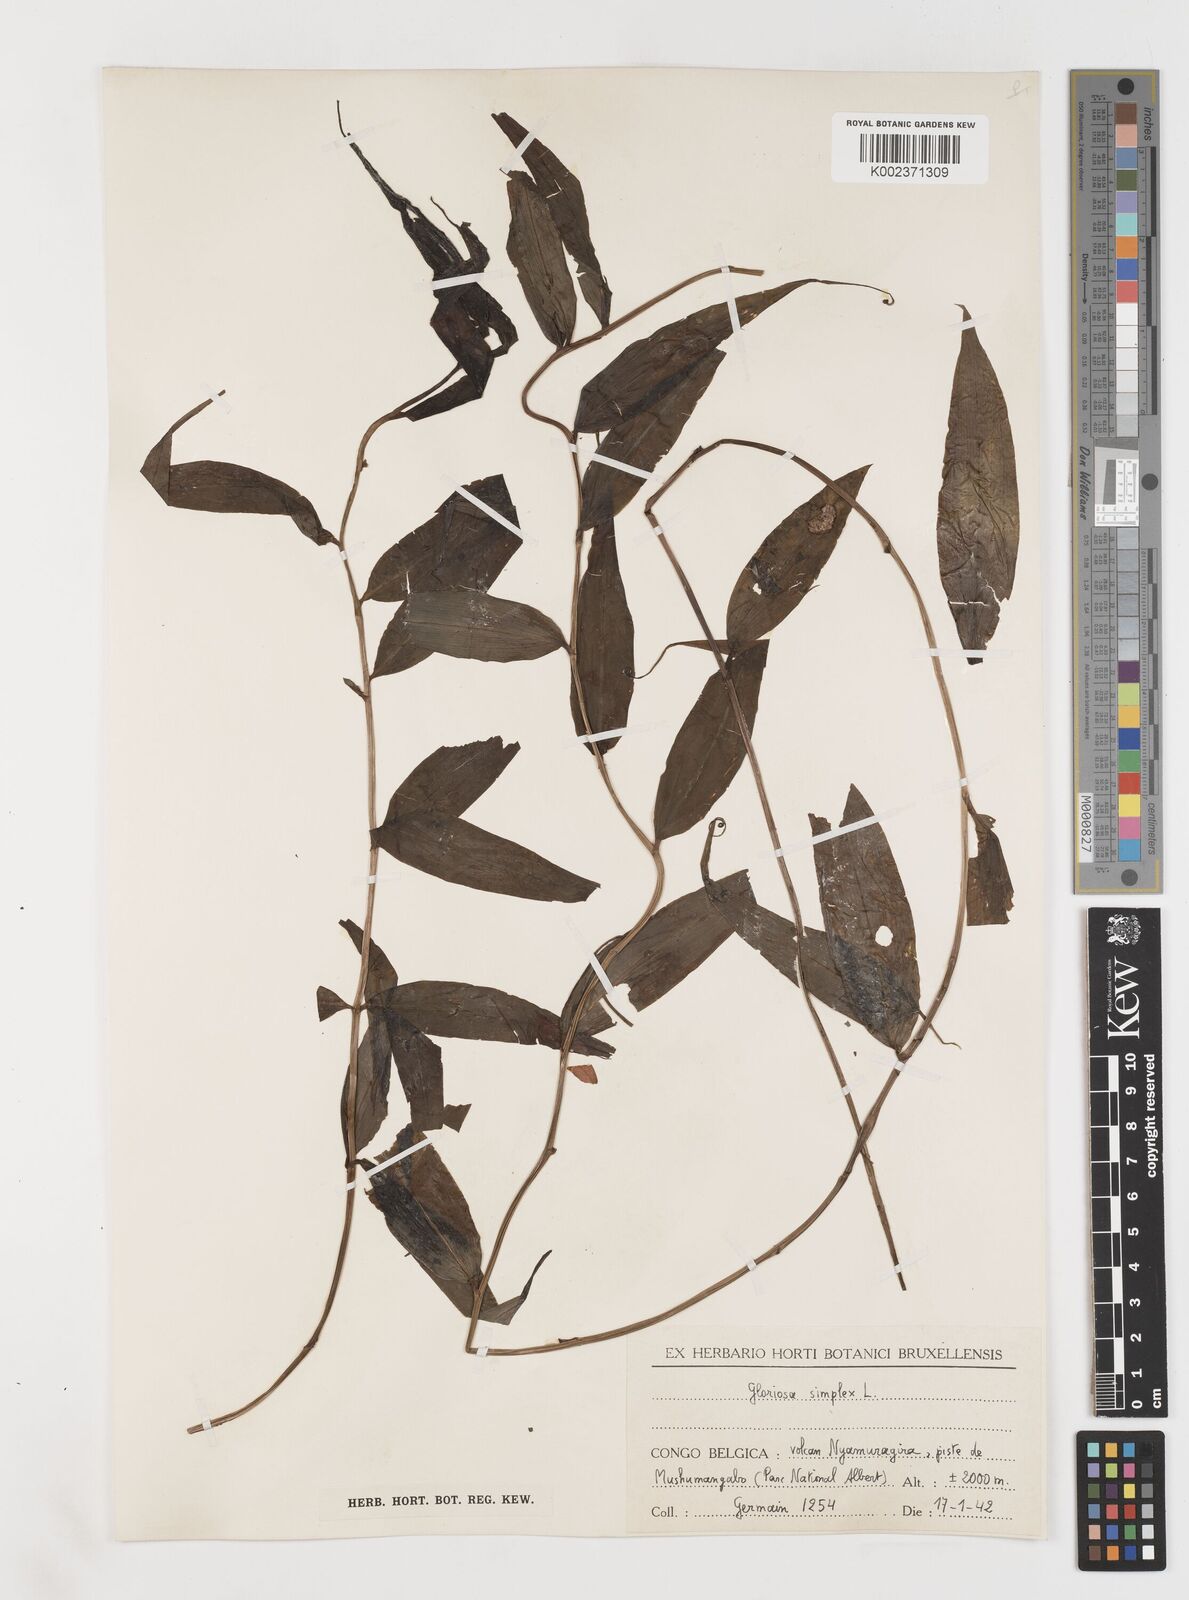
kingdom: Plantae
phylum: Tracheophyta
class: Liliopsida
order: Liliales
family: Colchicaceae
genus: Gloriosa
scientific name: Gloriosa simplex
